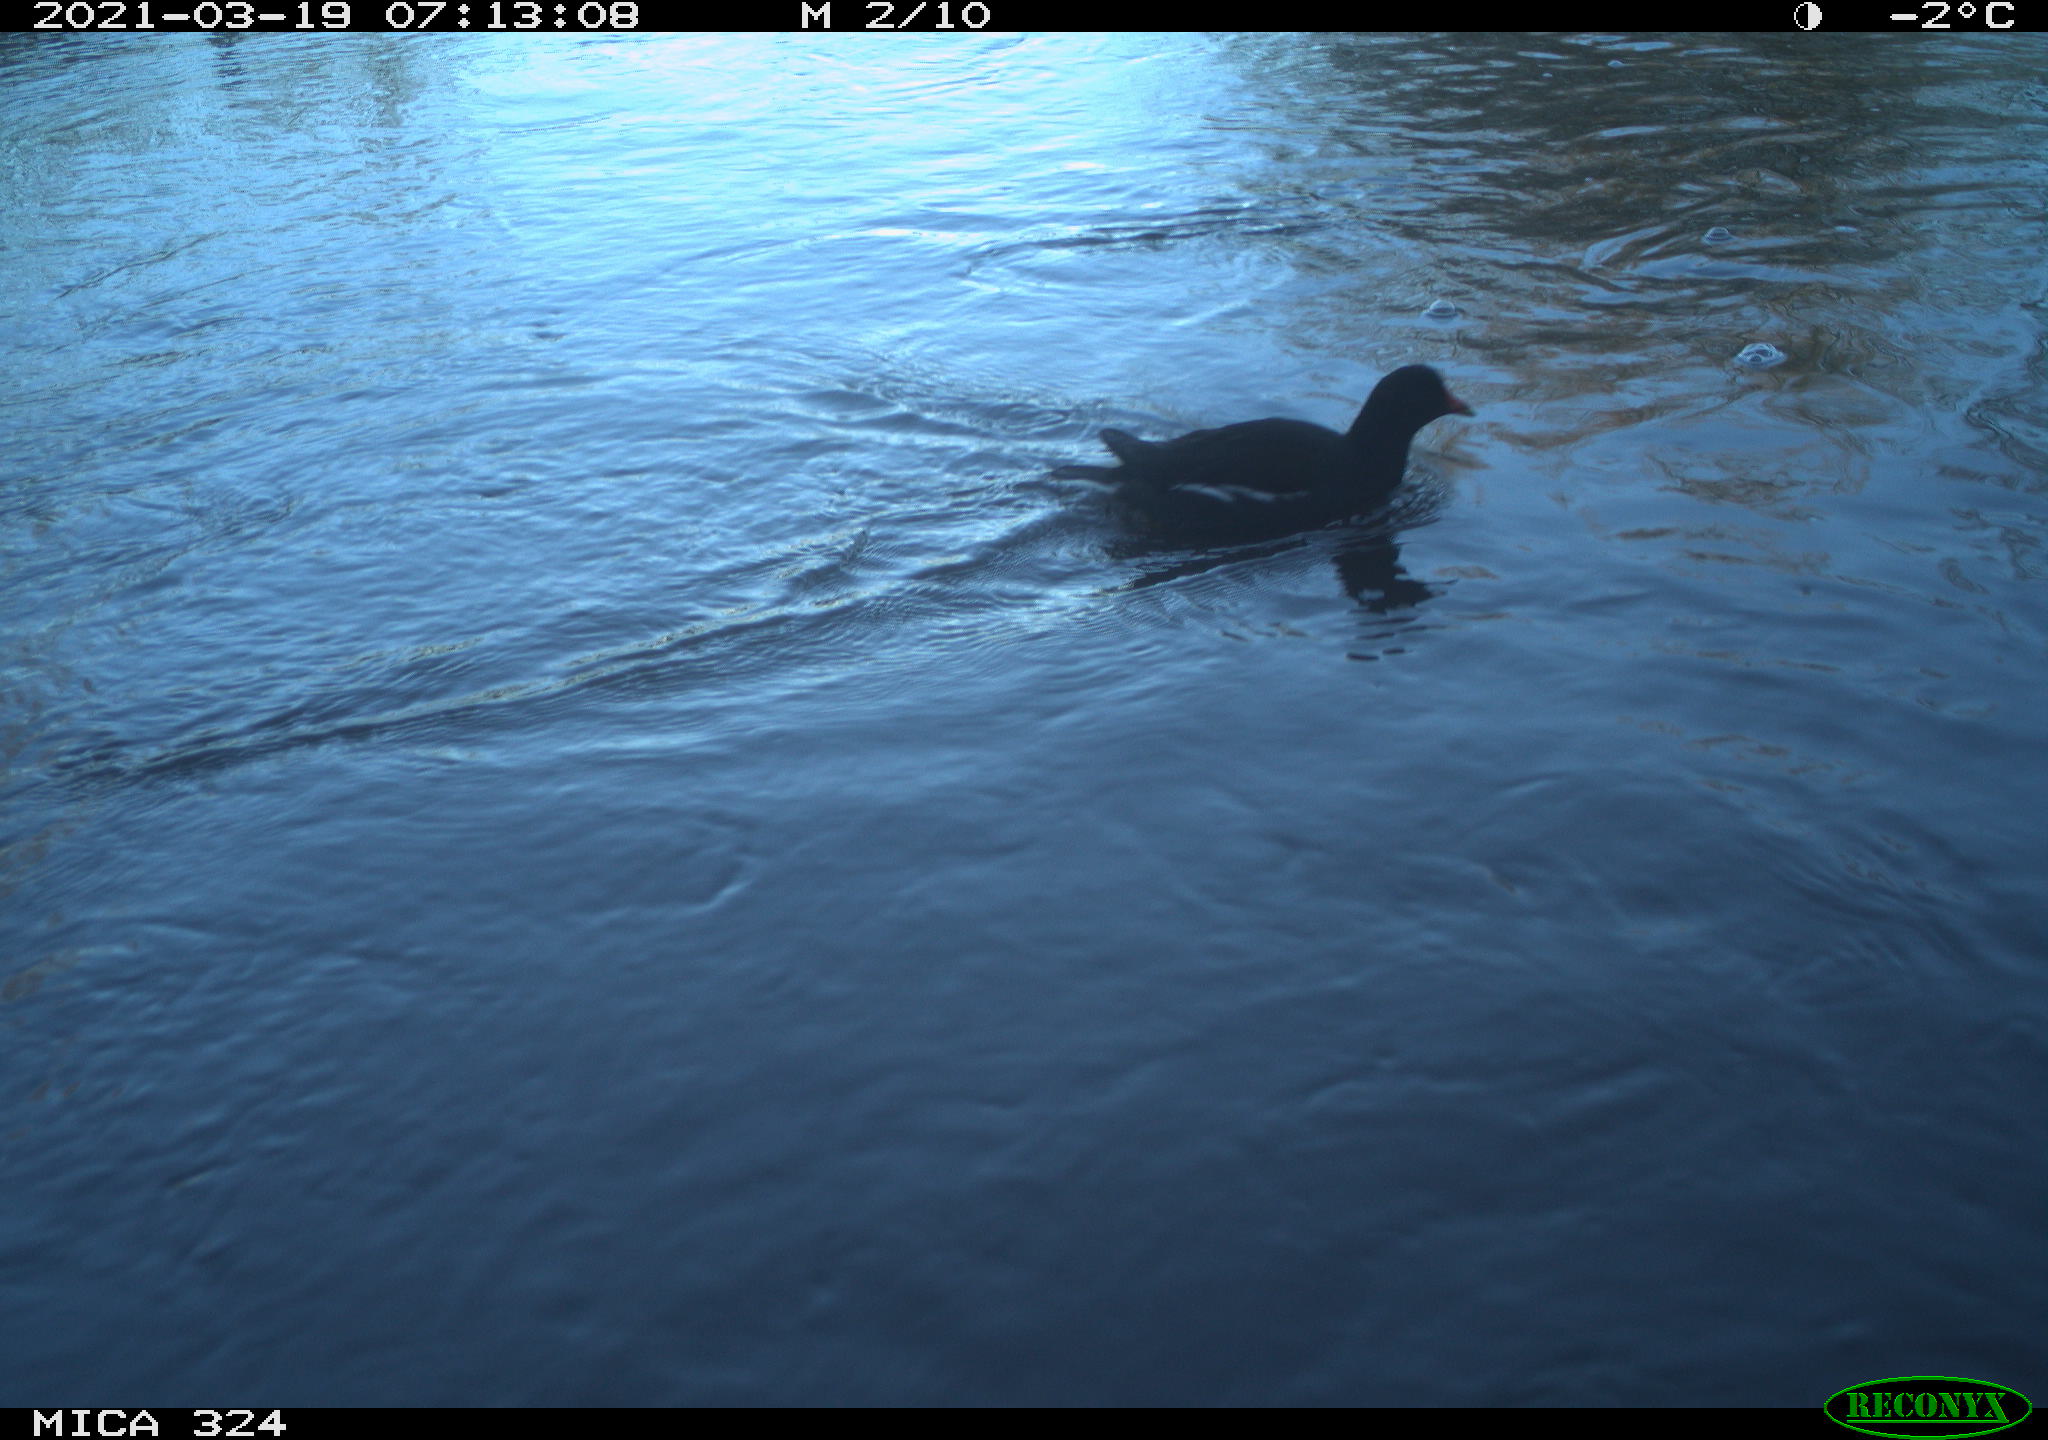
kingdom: Animalia
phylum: Chordata
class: Aves
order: Gruiformes
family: Rallidae
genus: Gallinula
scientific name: Gallinula chloropus
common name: Common moorhen
